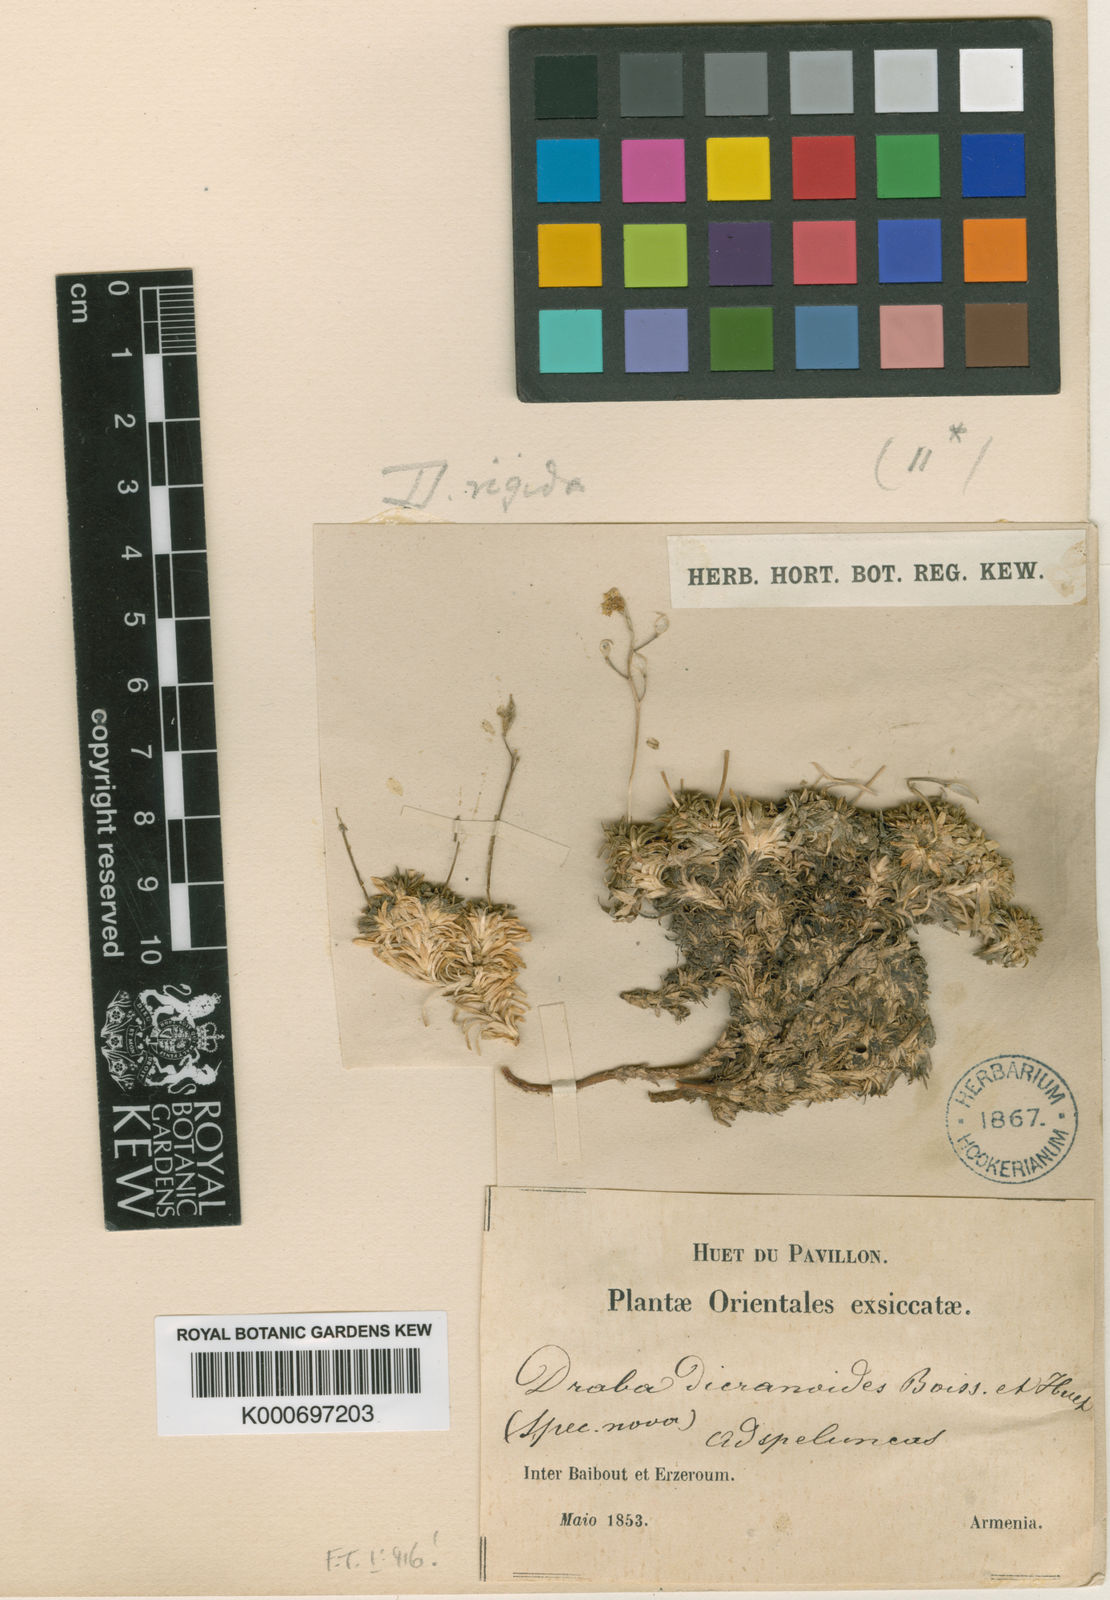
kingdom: Plantae
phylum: Tracheophyta
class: Magnoliopsida
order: Brassicales
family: Brassicaceae
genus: Draba
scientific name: Draba rigida
